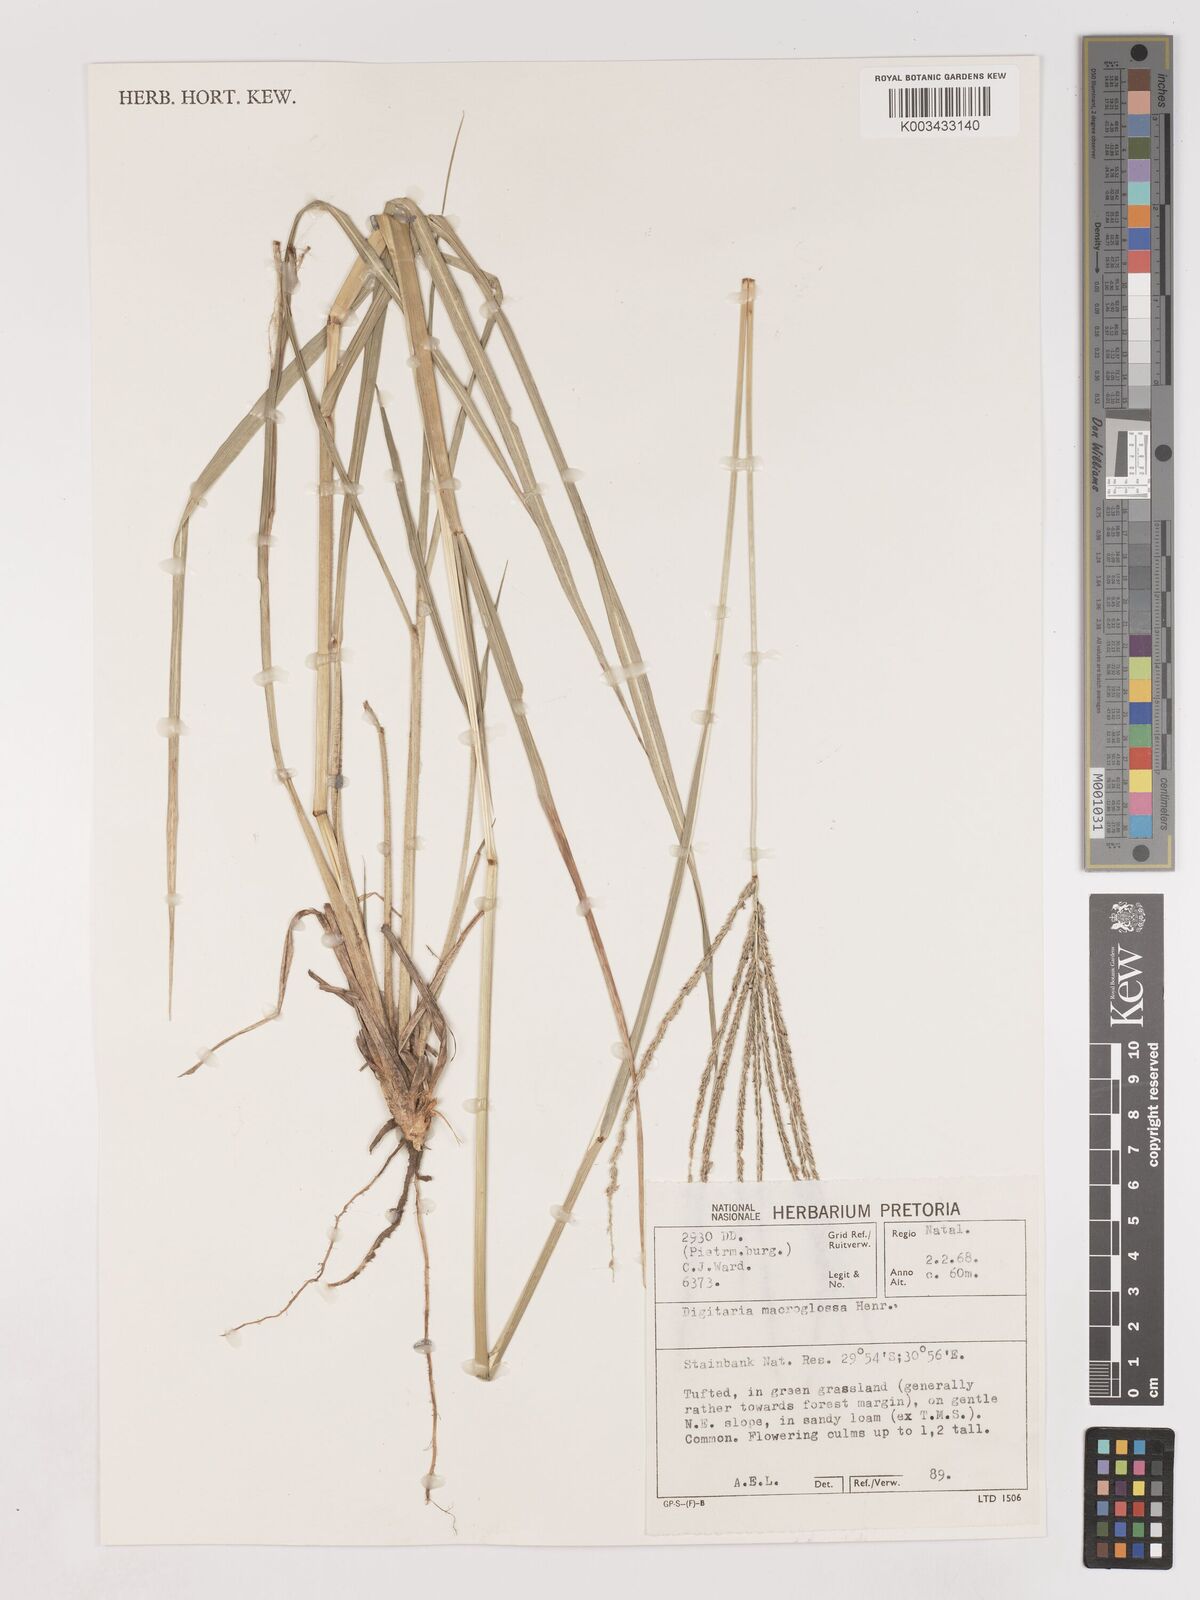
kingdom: Plantae
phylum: Tracheophyta
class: Liliopsida
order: Poales
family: Poaceae
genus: Digitaria
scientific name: Digitaria natalensis
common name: Coast finger grass
